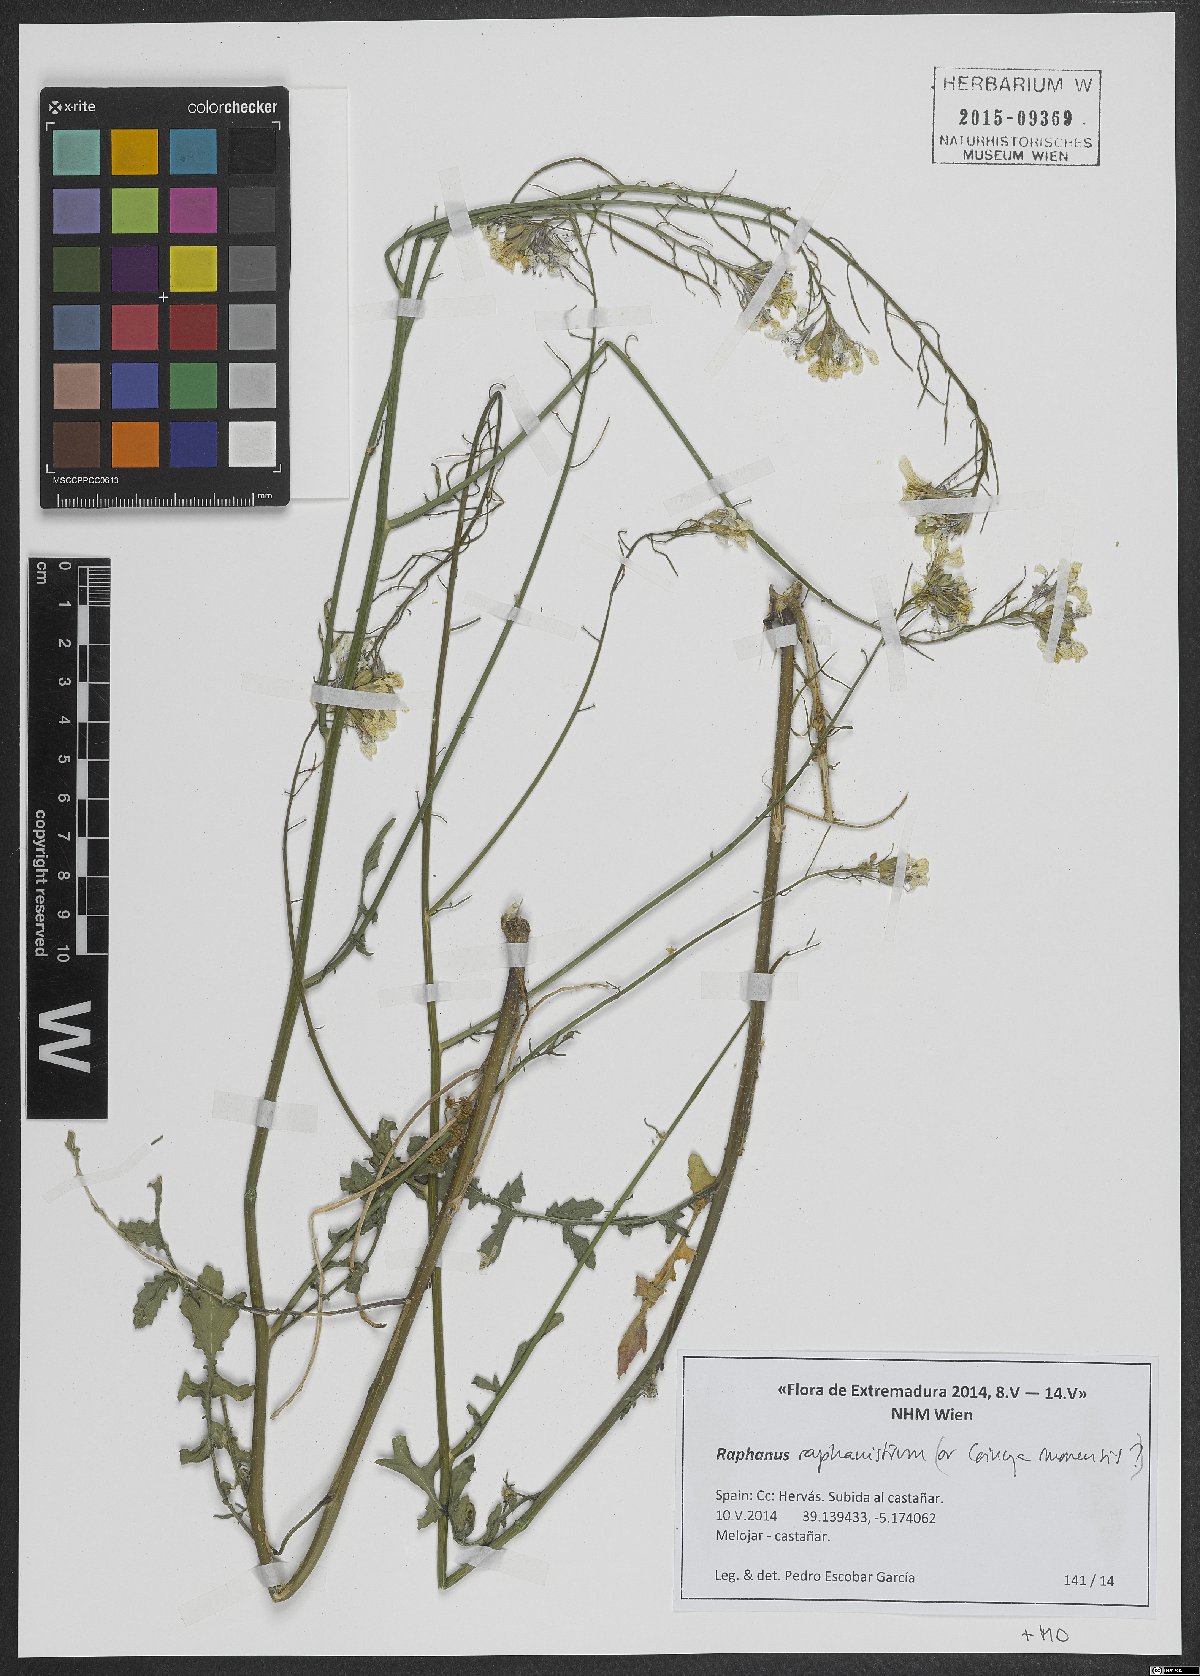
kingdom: Plantae
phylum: Tracheophyta
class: Magnoliopsida
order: Brassicales
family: Brassicaceae
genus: Raphanus
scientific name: Raphanus raphanistrum
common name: Wild radish
